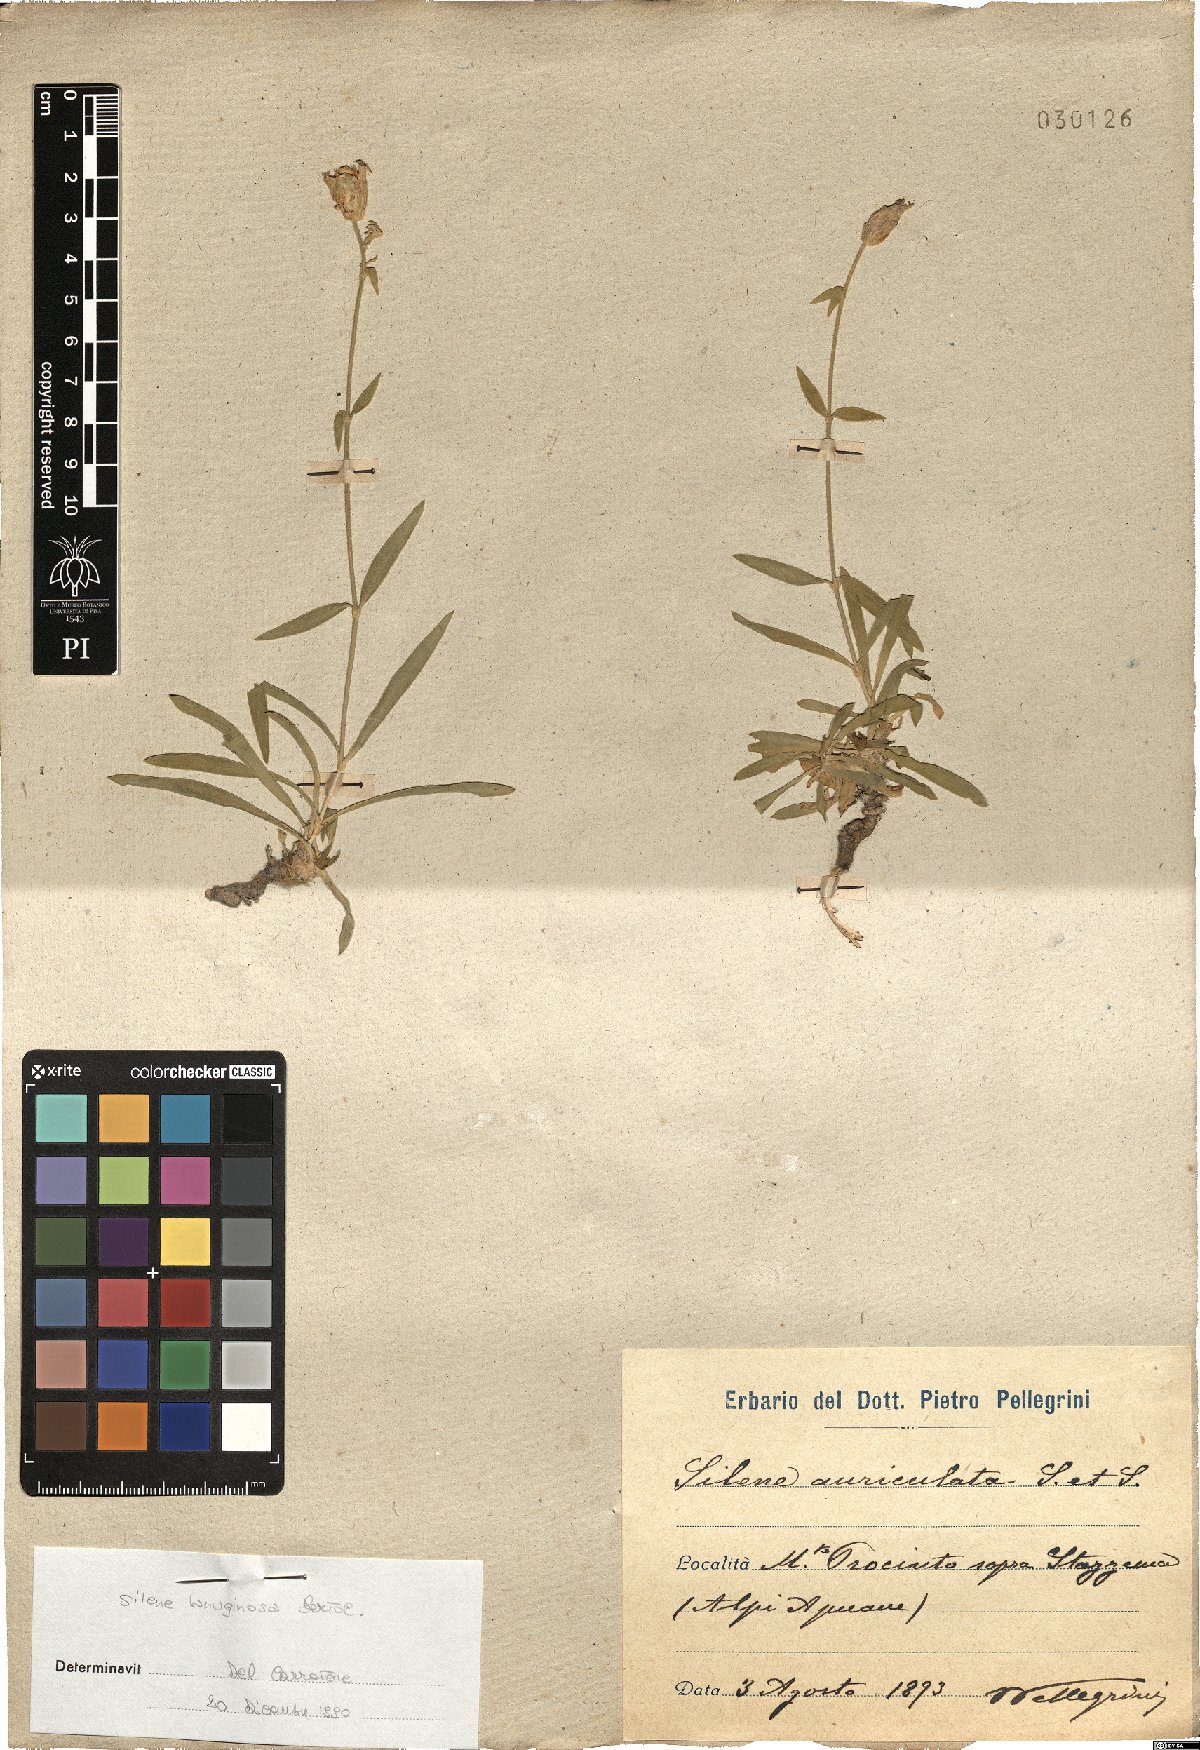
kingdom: Plantae
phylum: Tracheophyta
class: Magnoliopsida
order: Caryophyllales
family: Caryophyllaceae
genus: Silene
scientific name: Silene auriculata
